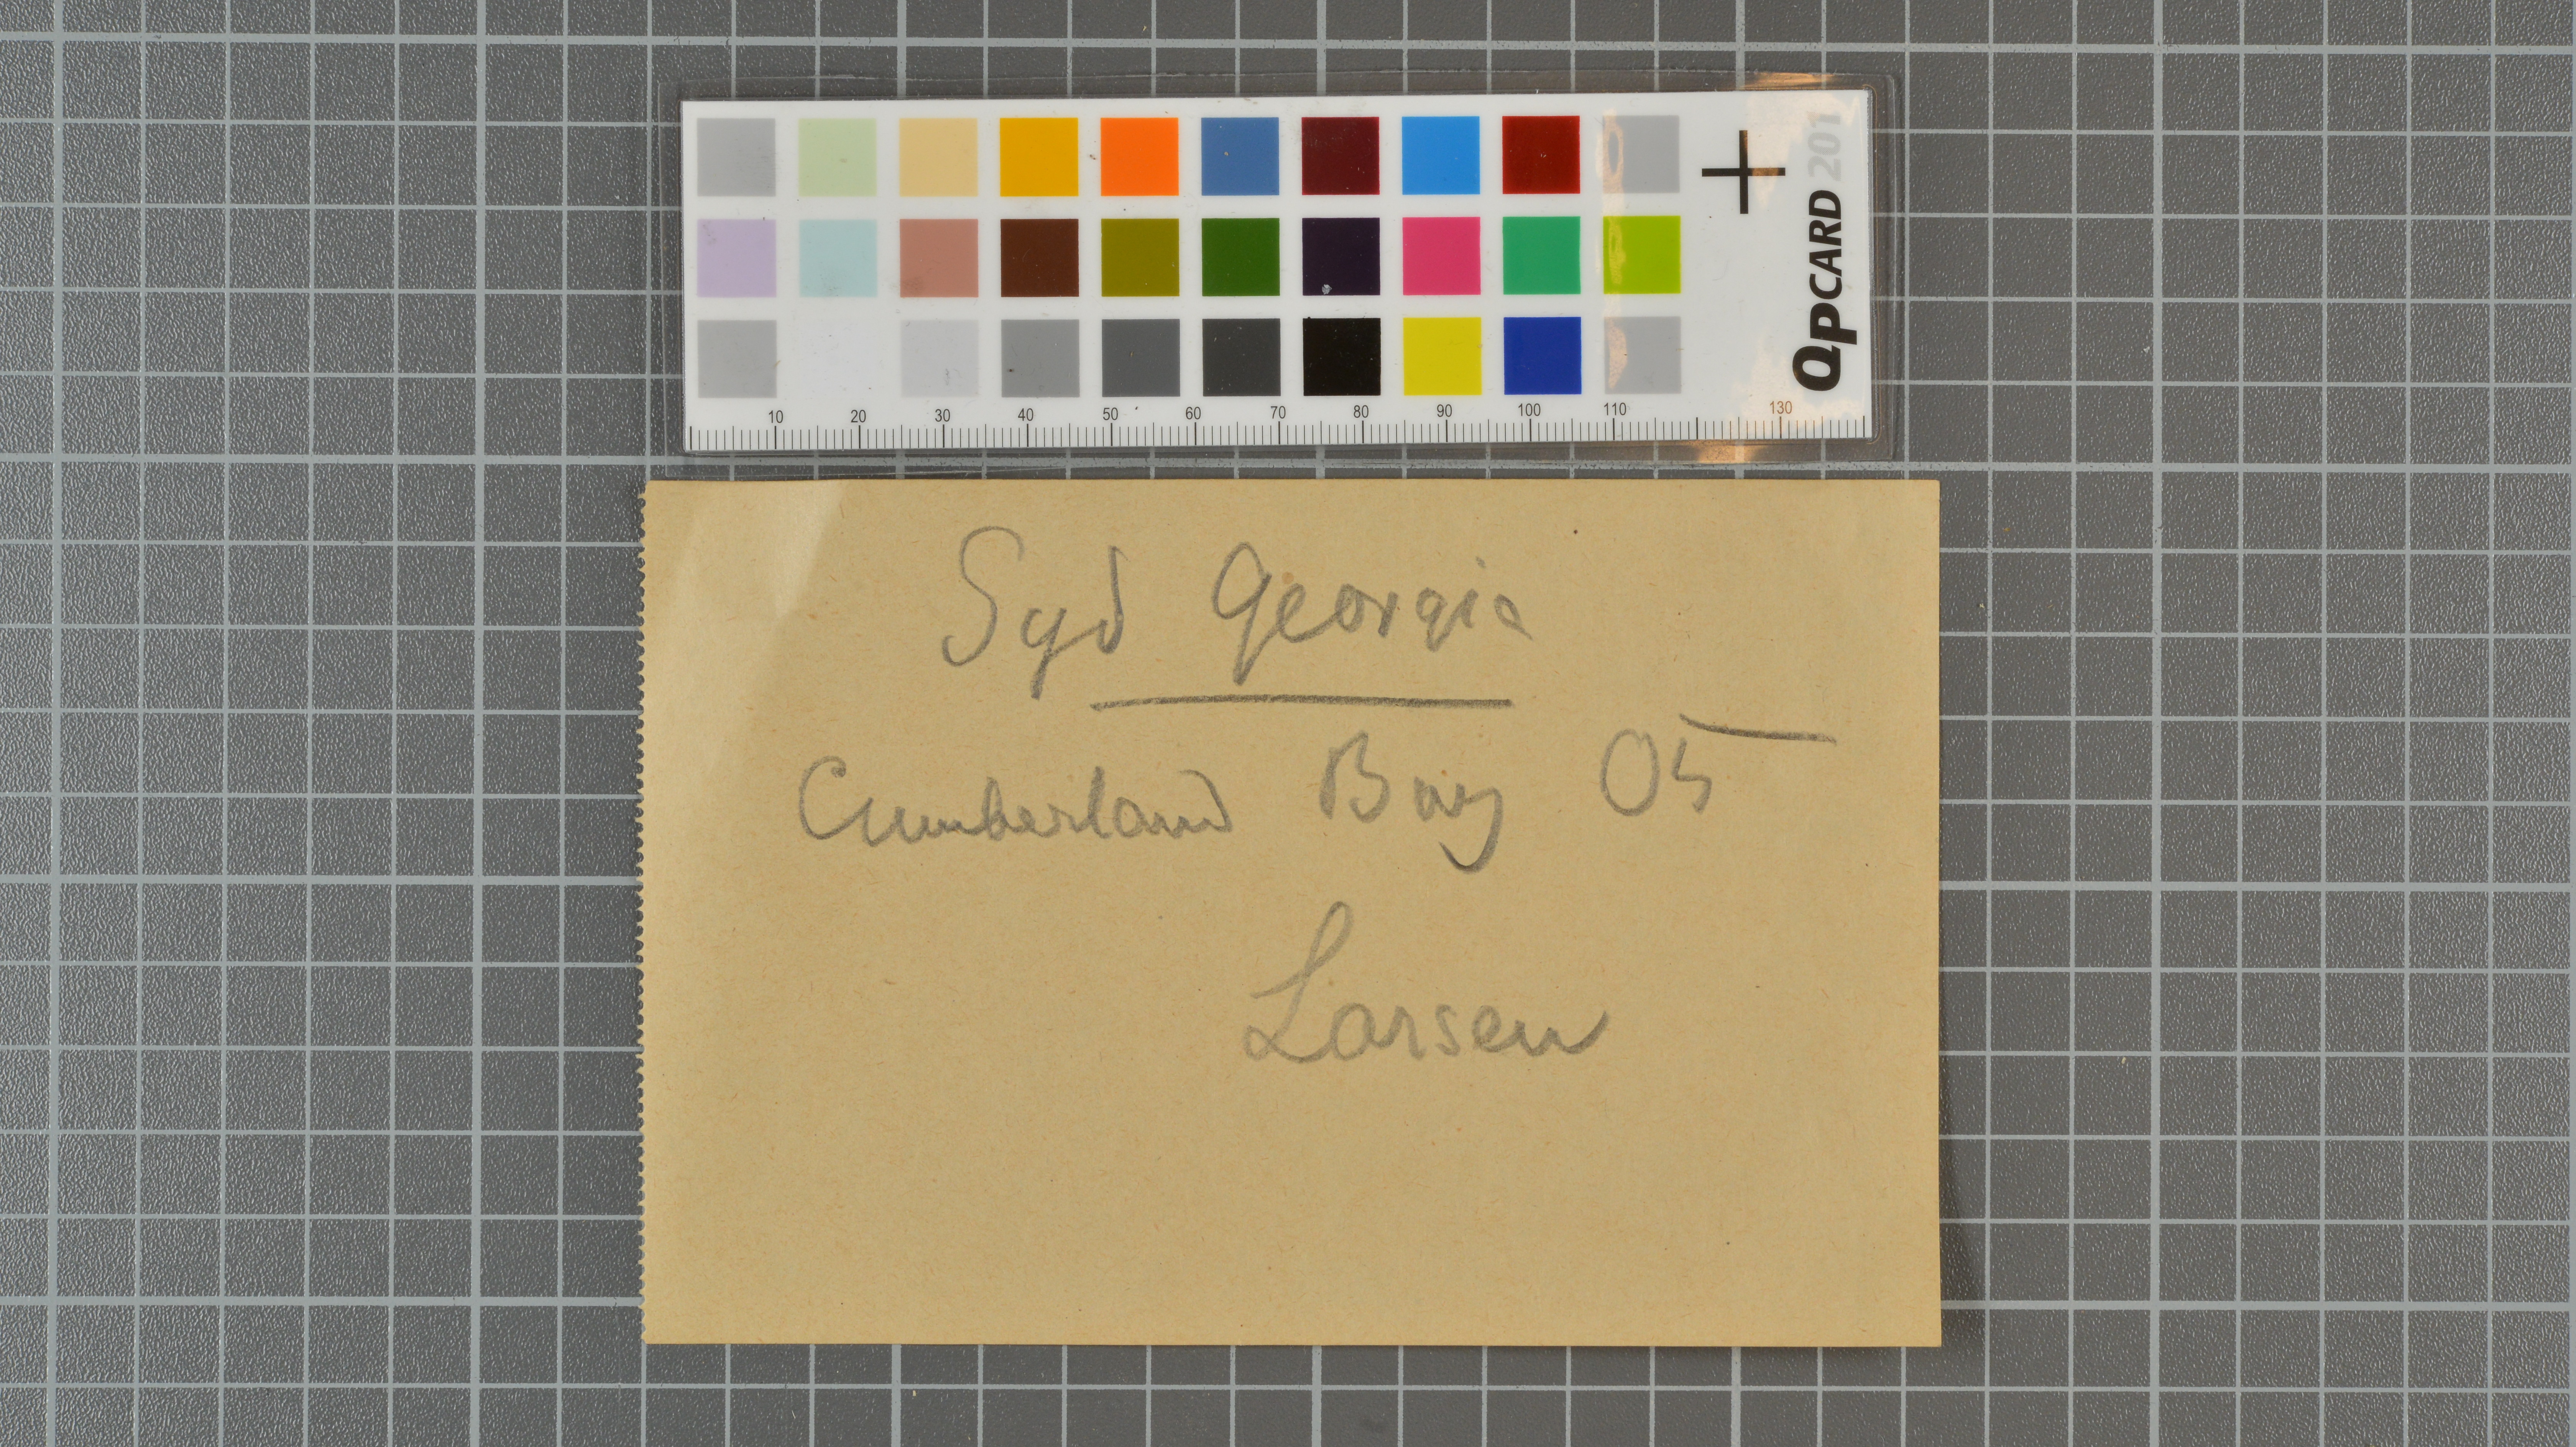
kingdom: Animalia
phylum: Chordata
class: Aves
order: Procellariiformes
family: Hydrobatidae
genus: Fregetta
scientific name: Fregetta tropica
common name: Black-bellied storm-petrel
